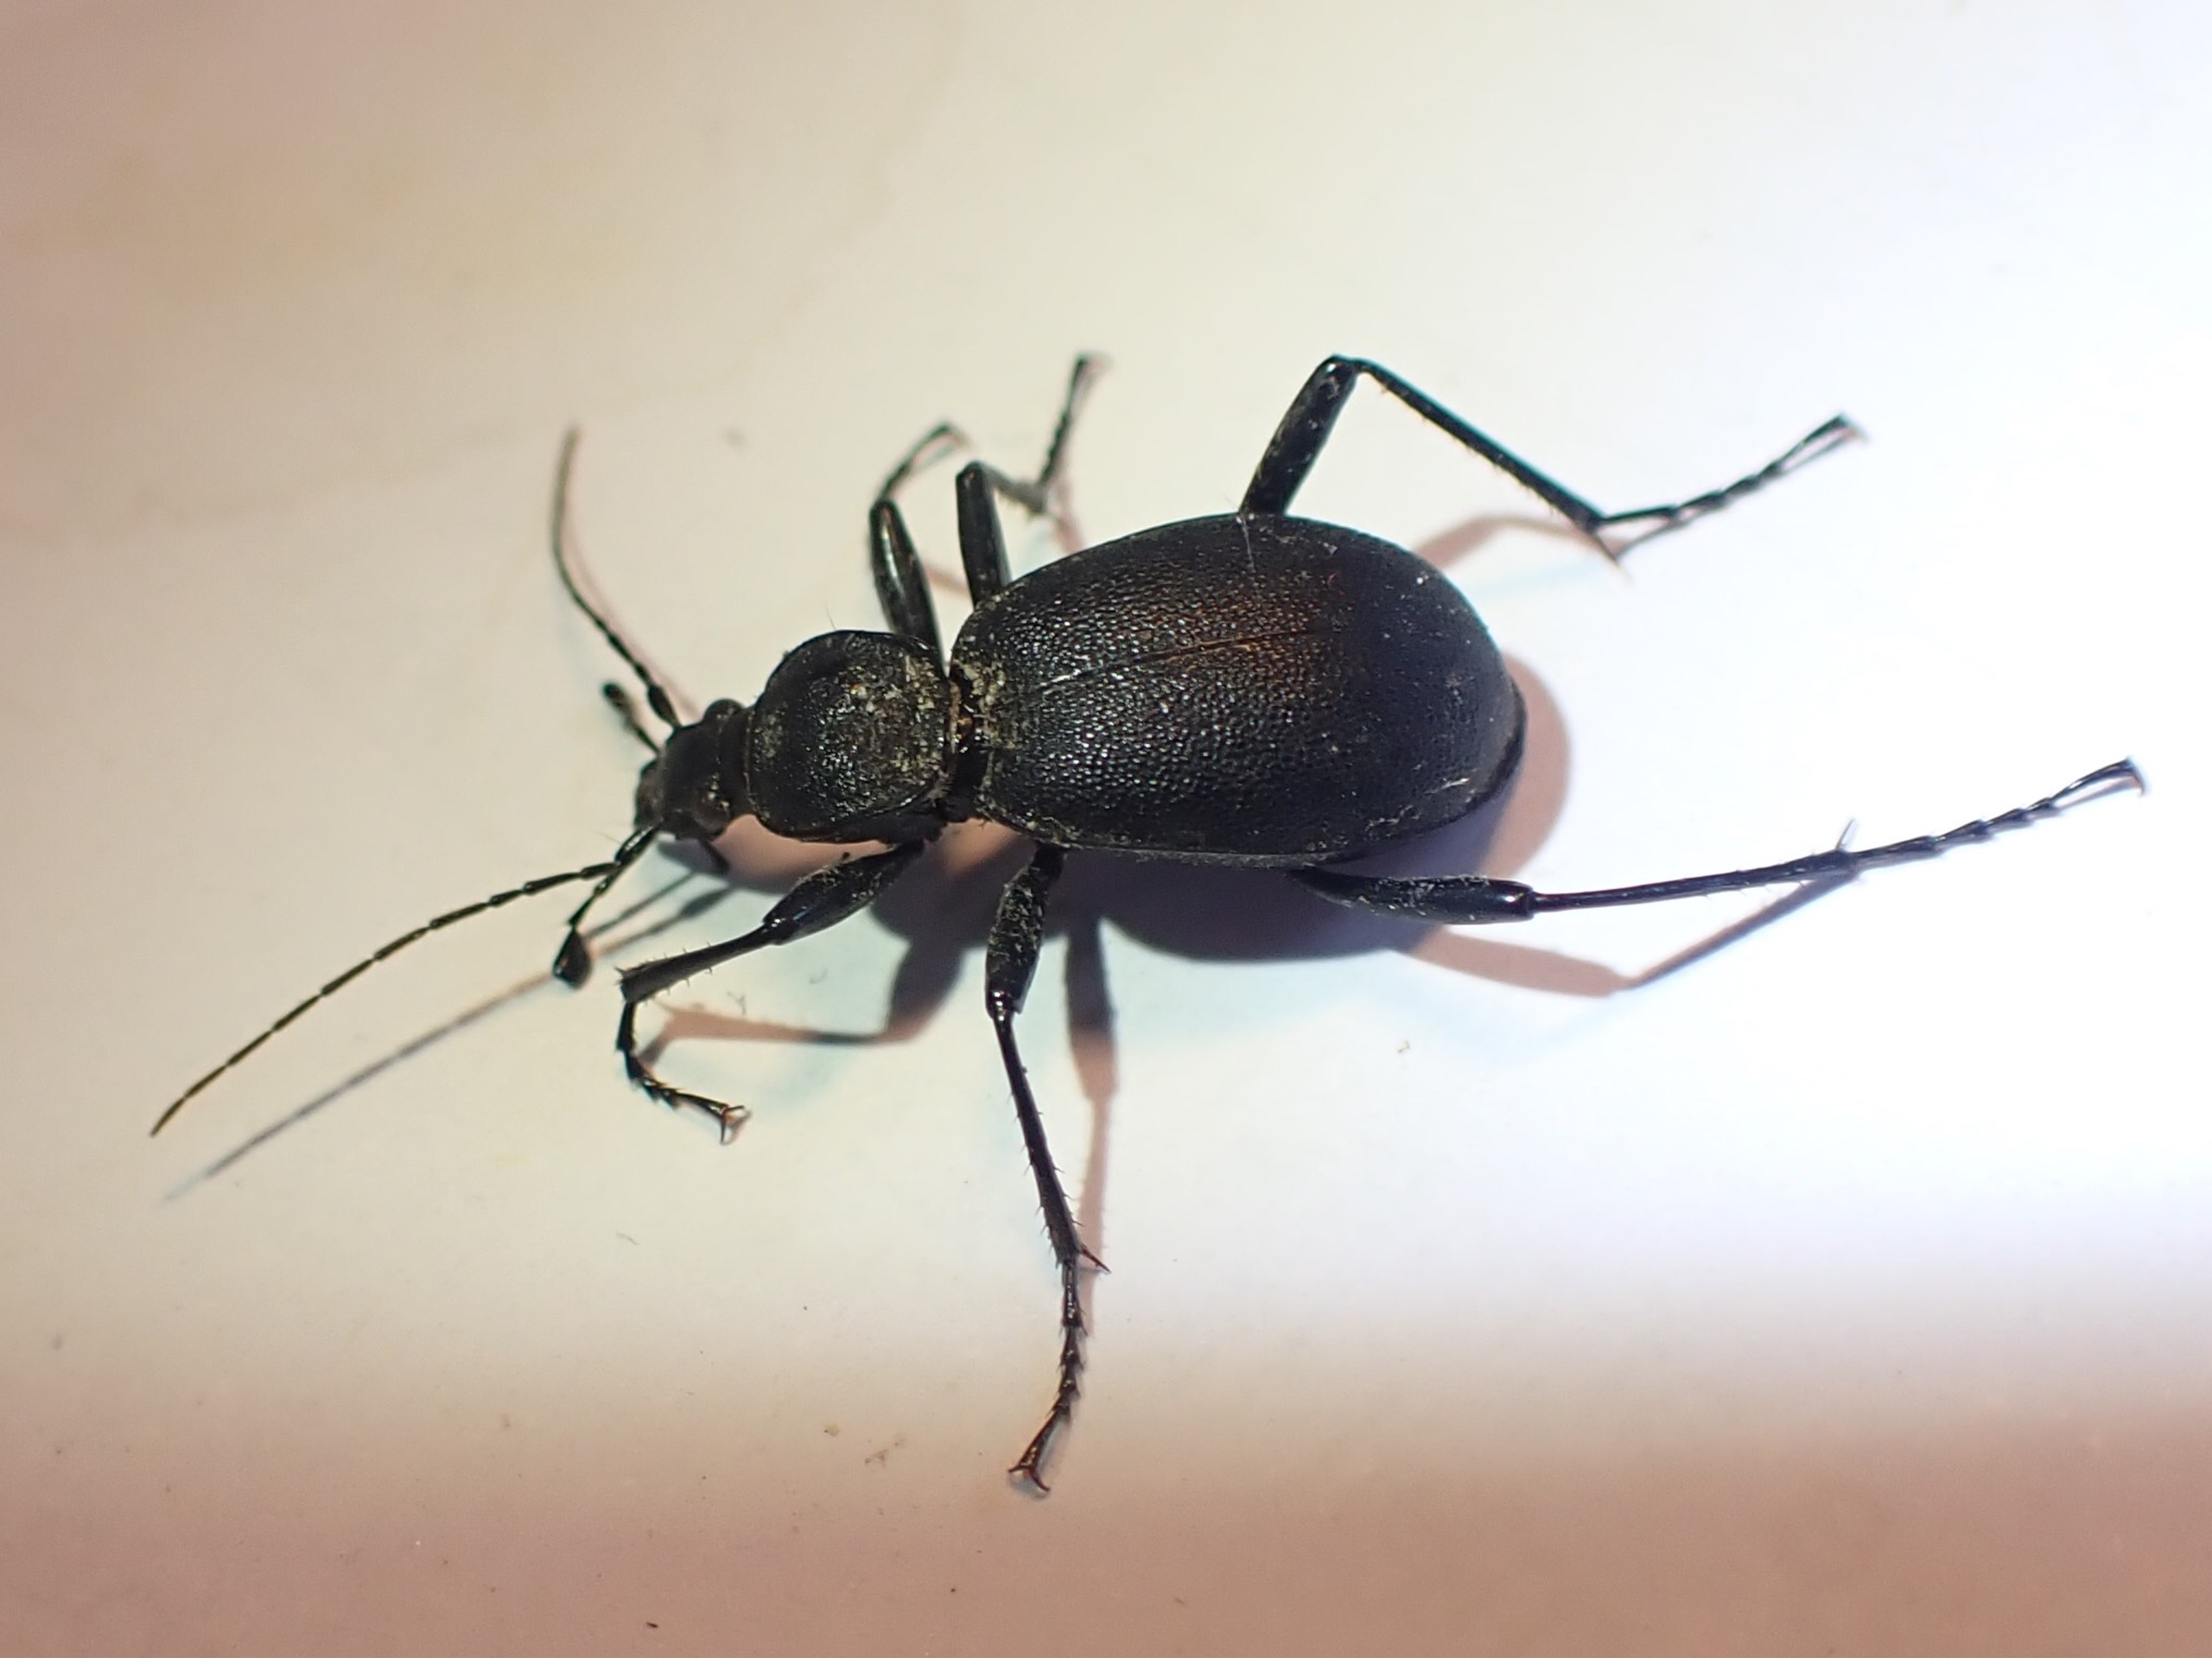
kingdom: Animalia
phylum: Arthropoda
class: Insecta
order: Coleoptera
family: Carabidae
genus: Cychrus
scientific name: Cychrus caraboides
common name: Sneglerøver
